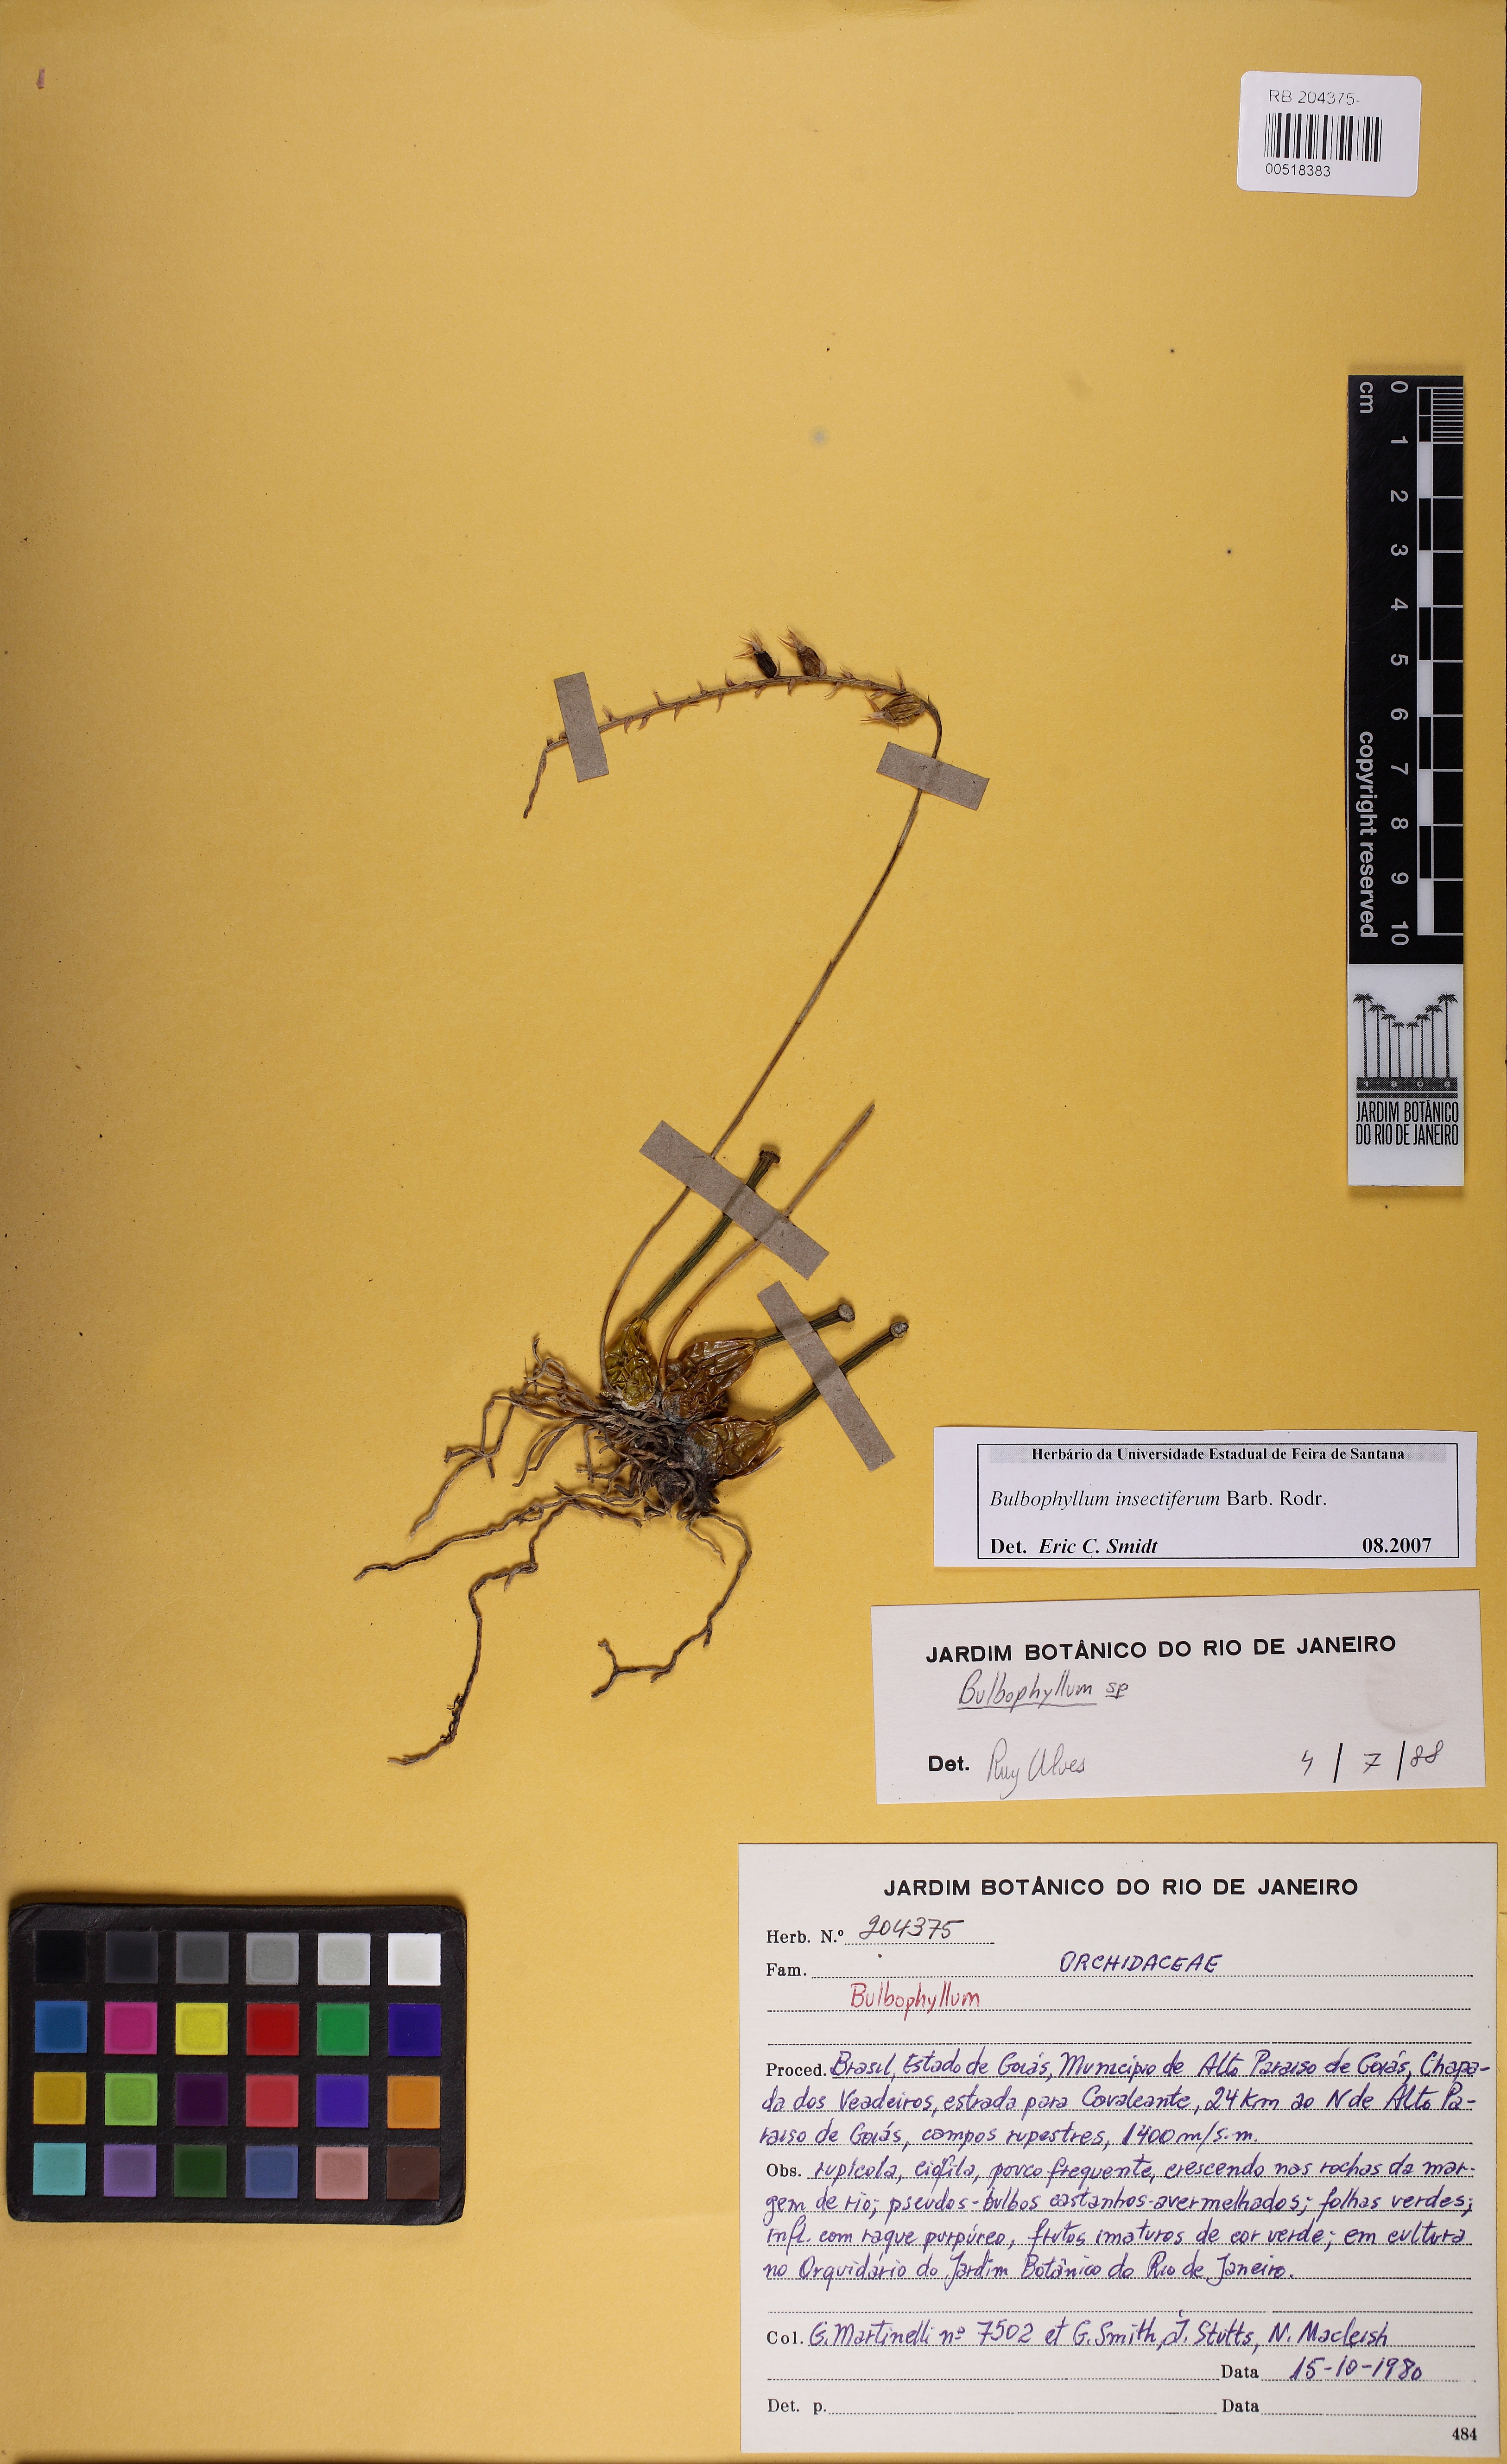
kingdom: Plantae
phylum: Tracheophyta
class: Liliopsida
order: Asparagales
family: Orchidaceae
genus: Bulbophyllum
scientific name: Bulbophyllum insectiferum
